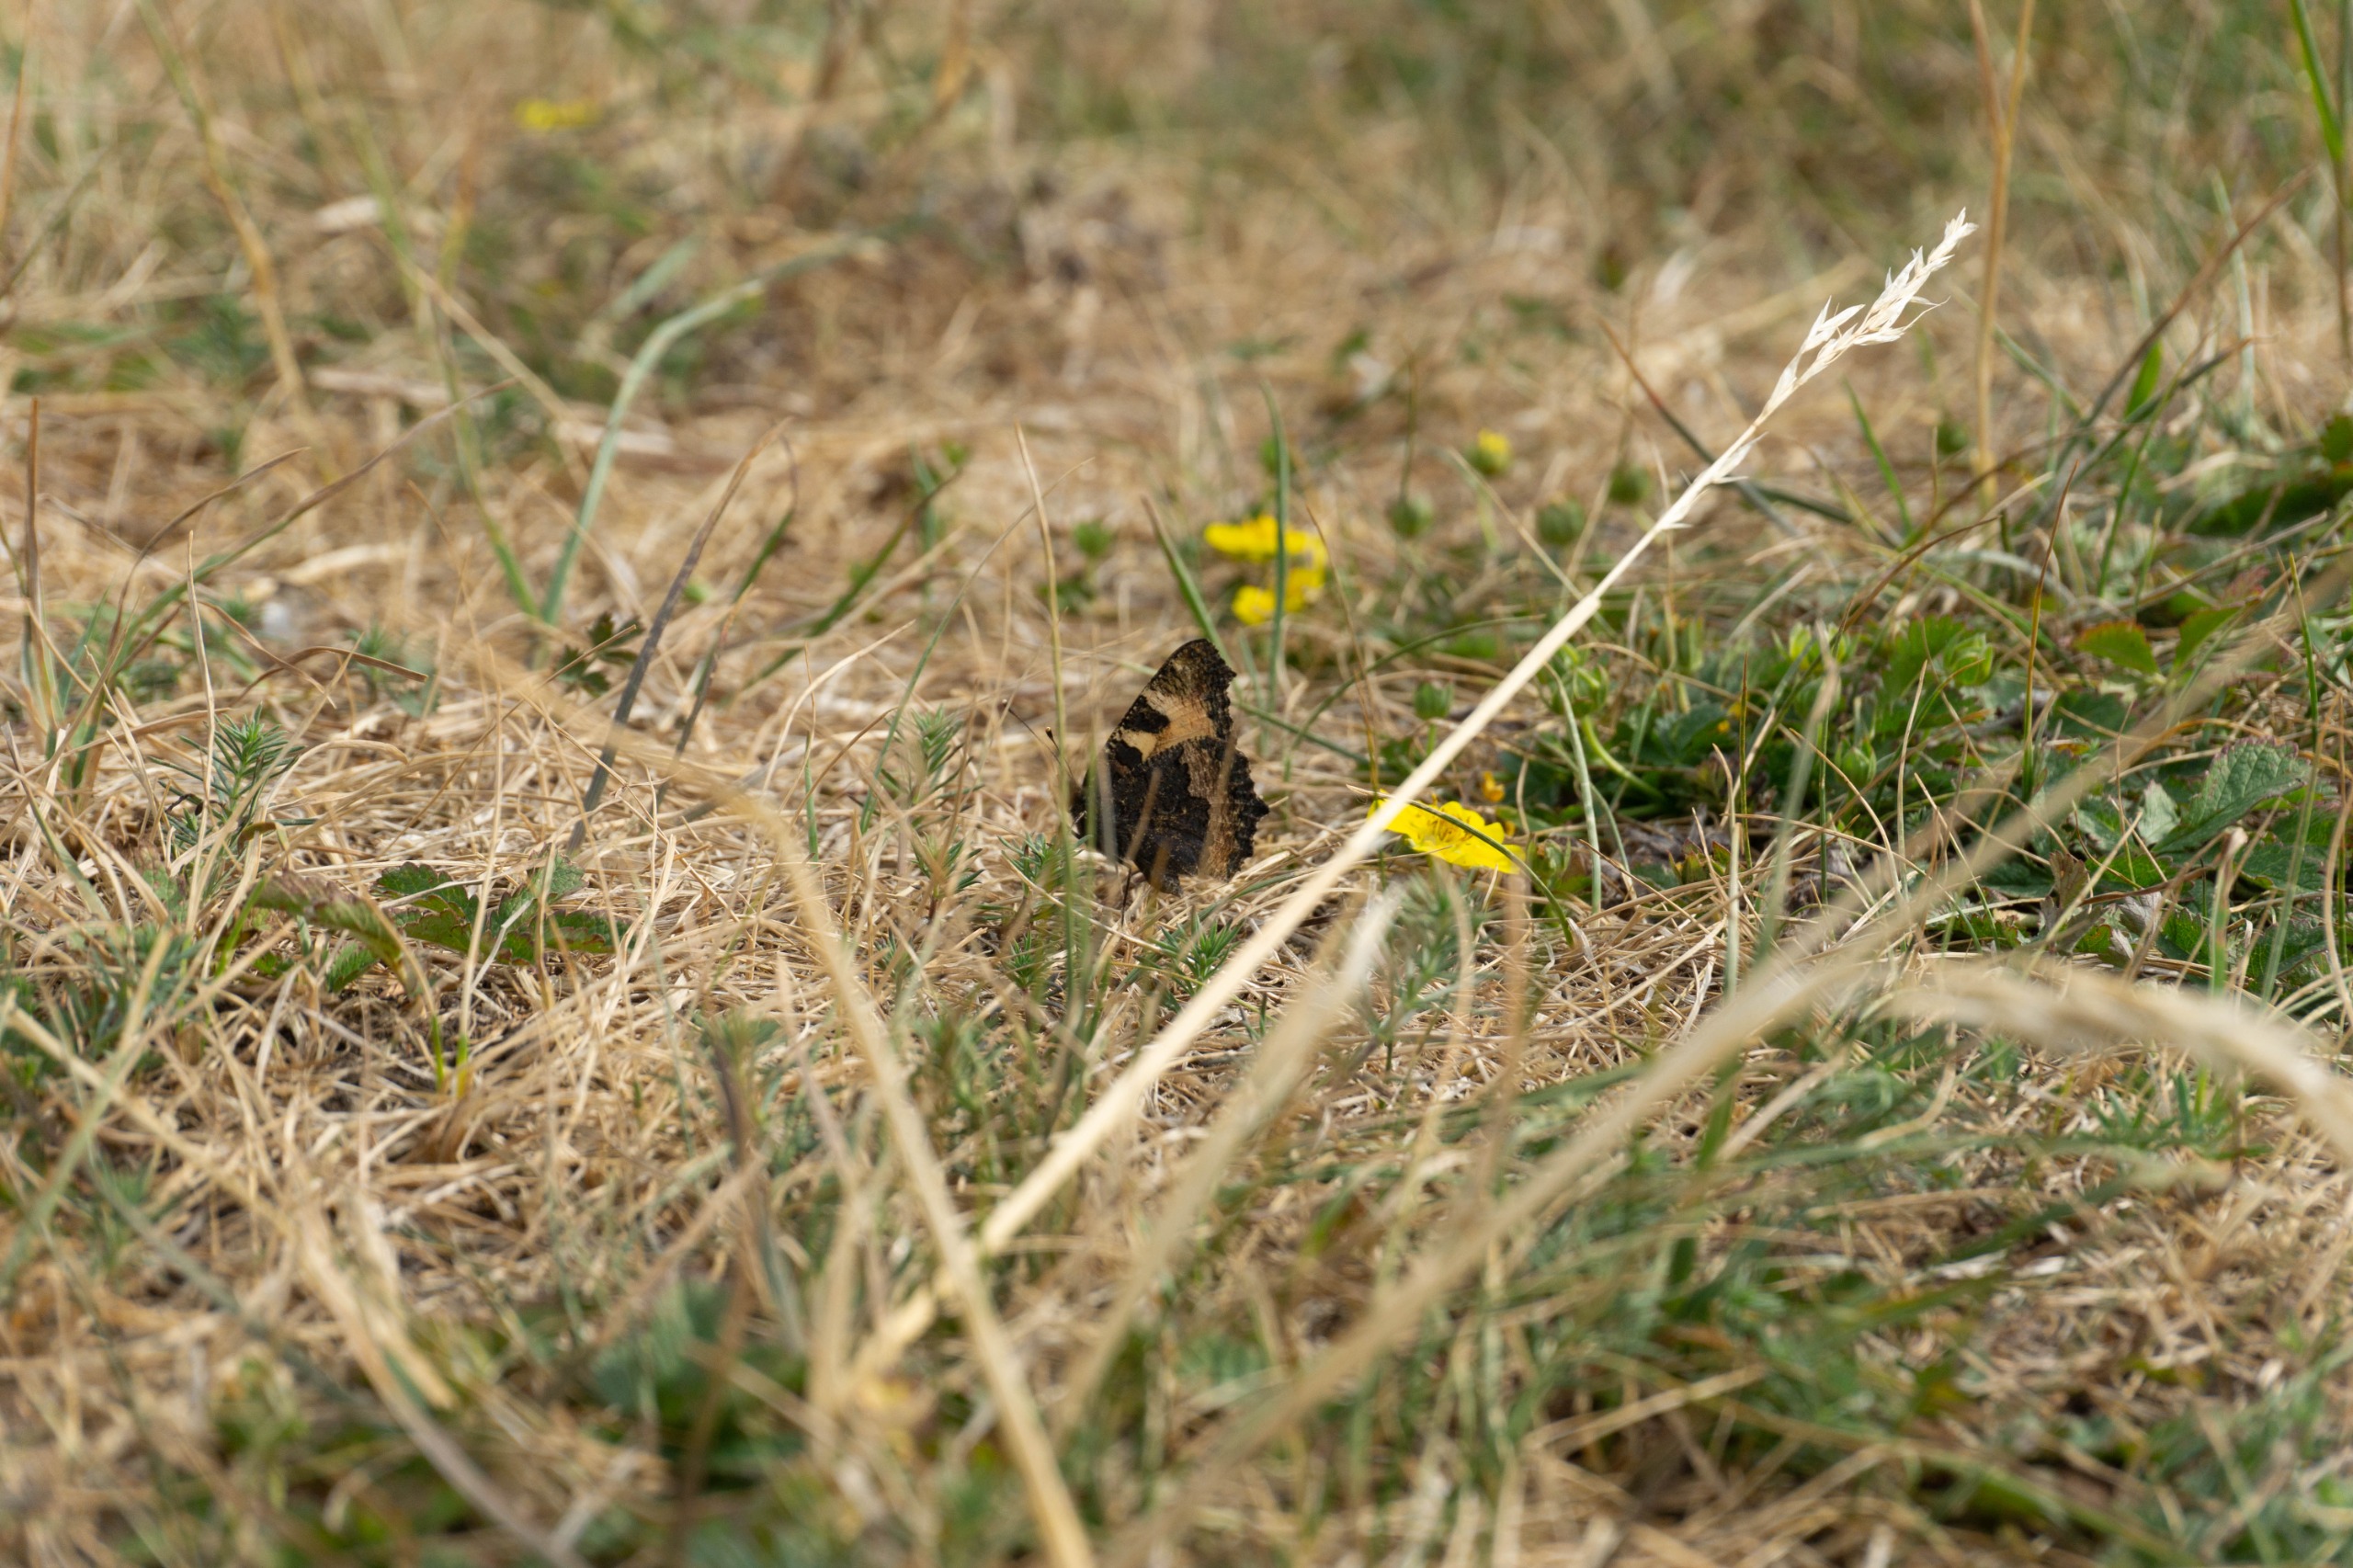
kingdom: Animalia
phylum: Arthropoda
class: Insecta
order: Lepidoptera
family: Nymphalidae
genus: Aglais
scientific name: Aglais urticae
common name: Nældens takvinge
